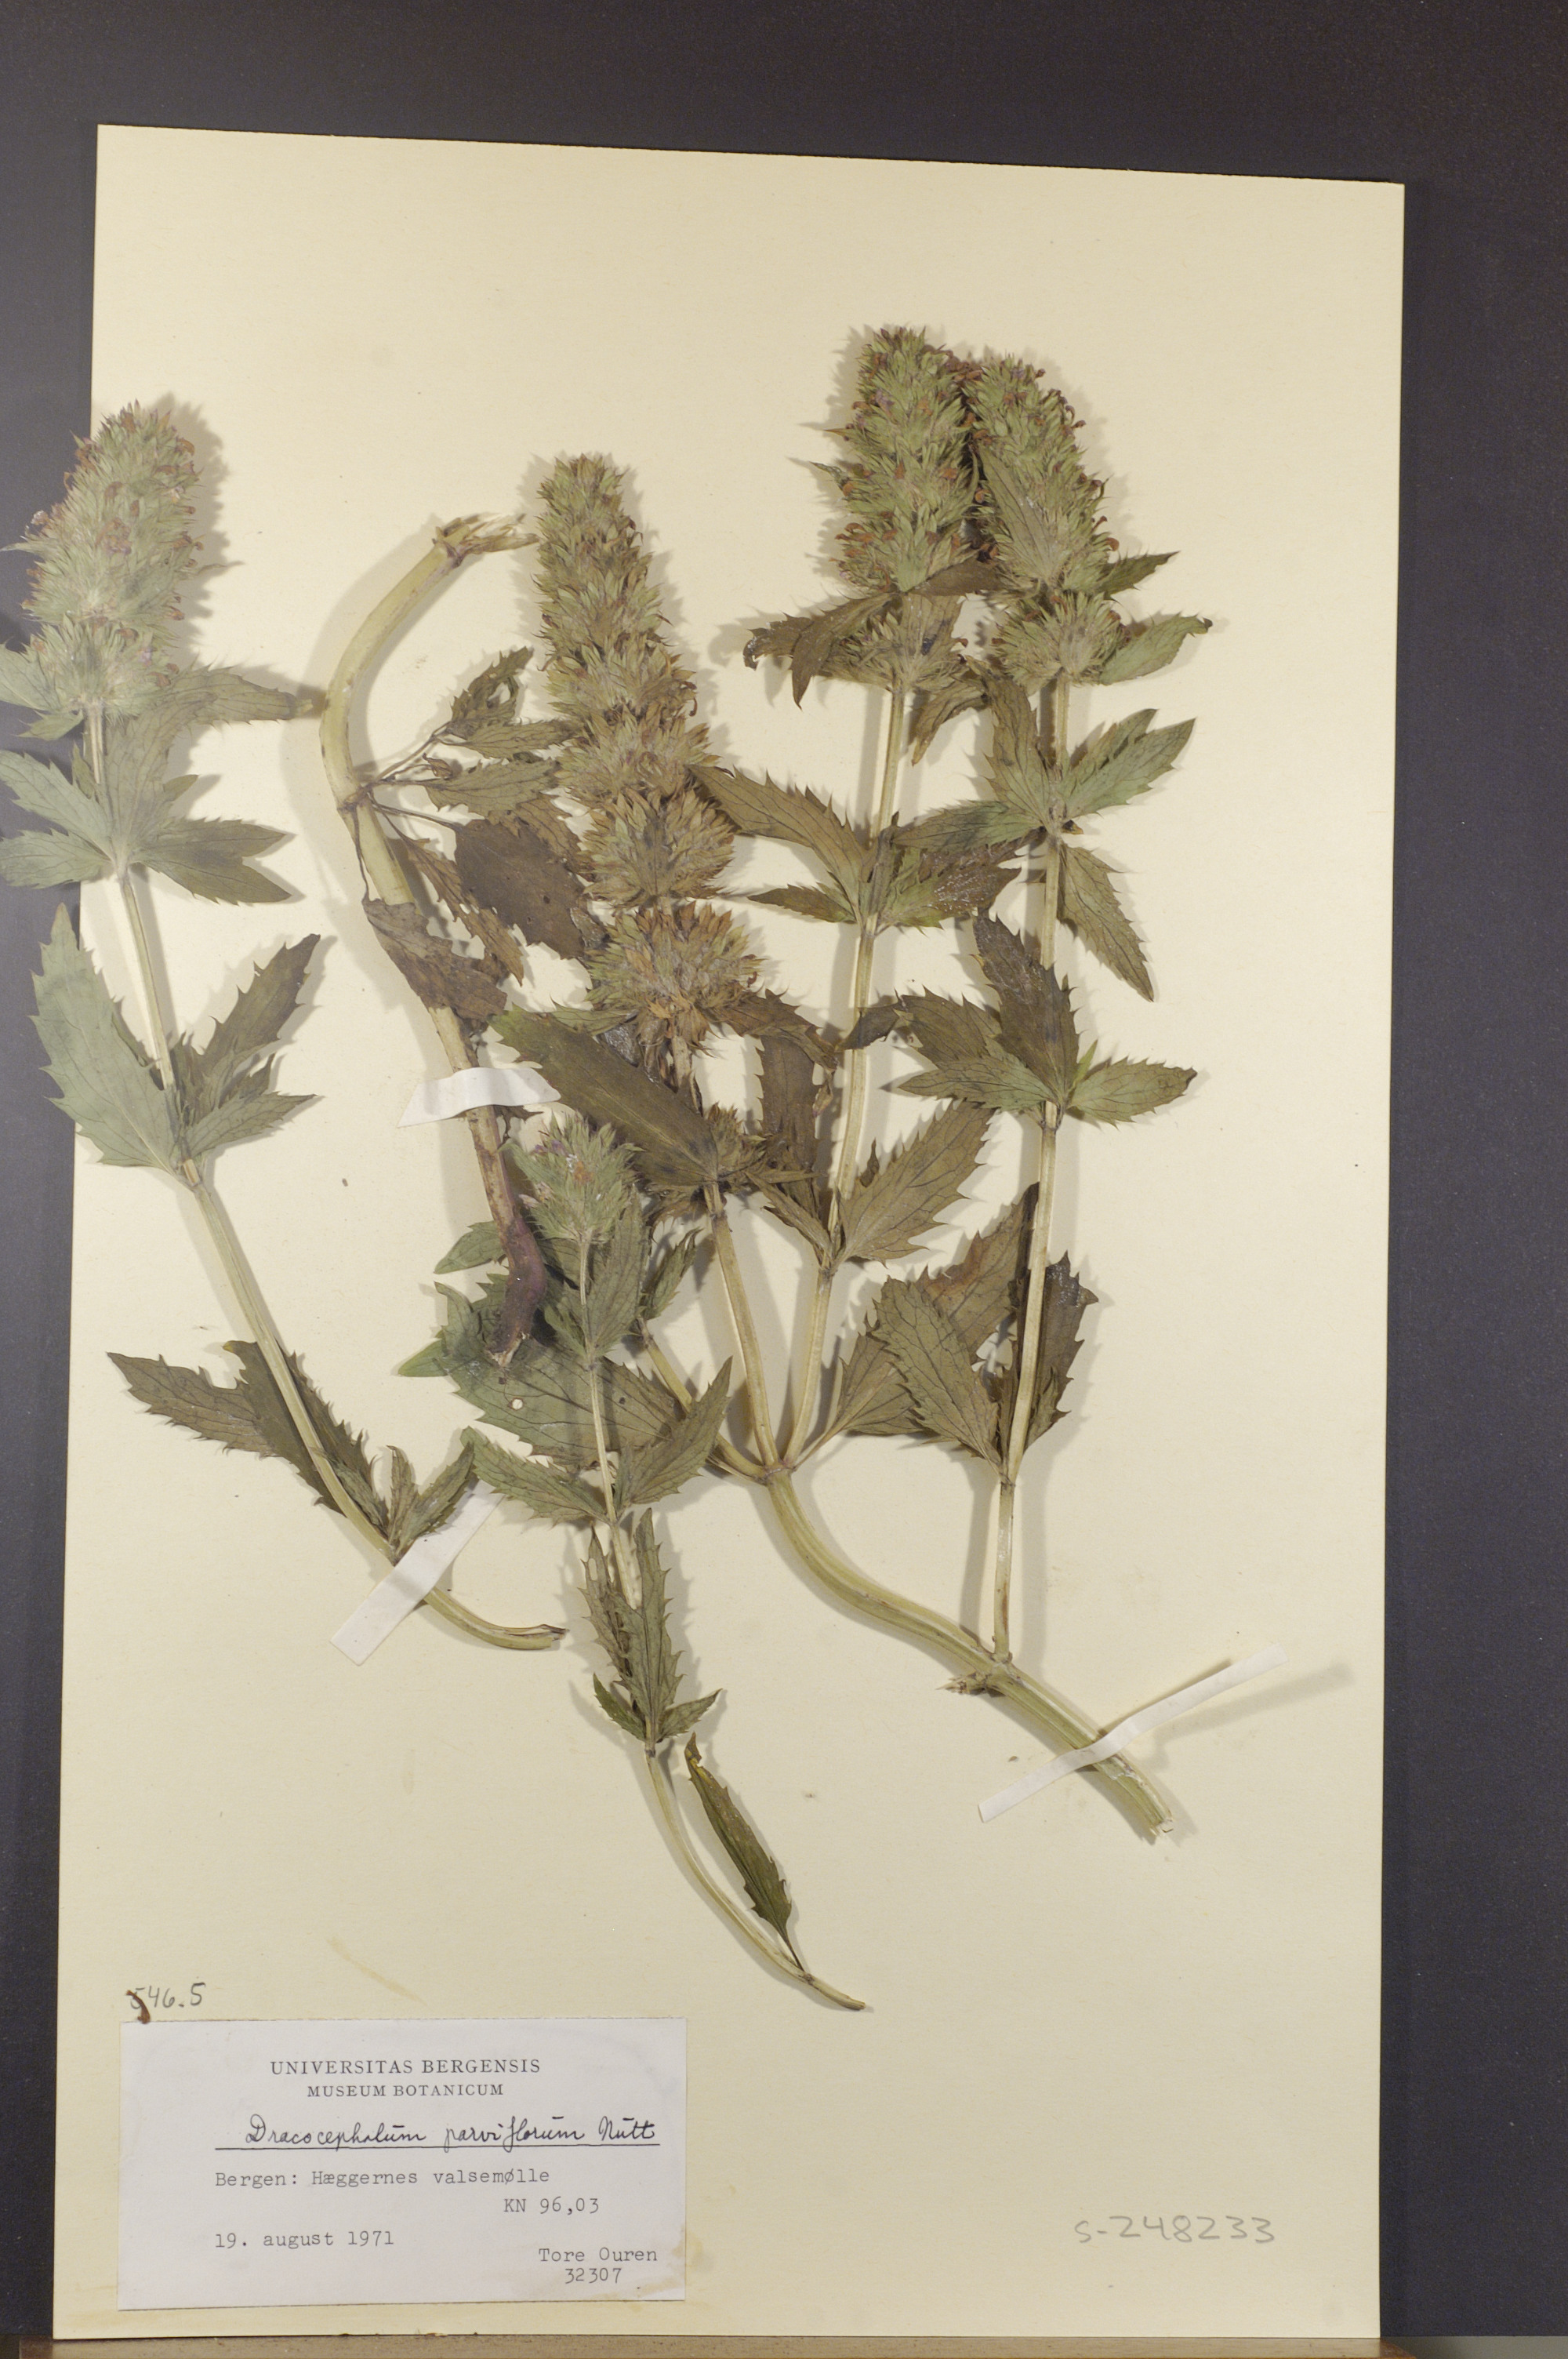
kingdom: Plantae
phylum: Tracheophyta
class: Magnoliopsida
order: Lamiales
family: Lamiaceae
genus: Dracocephalum
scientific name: Dracocephalum parviflorum
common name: American dragonhead
